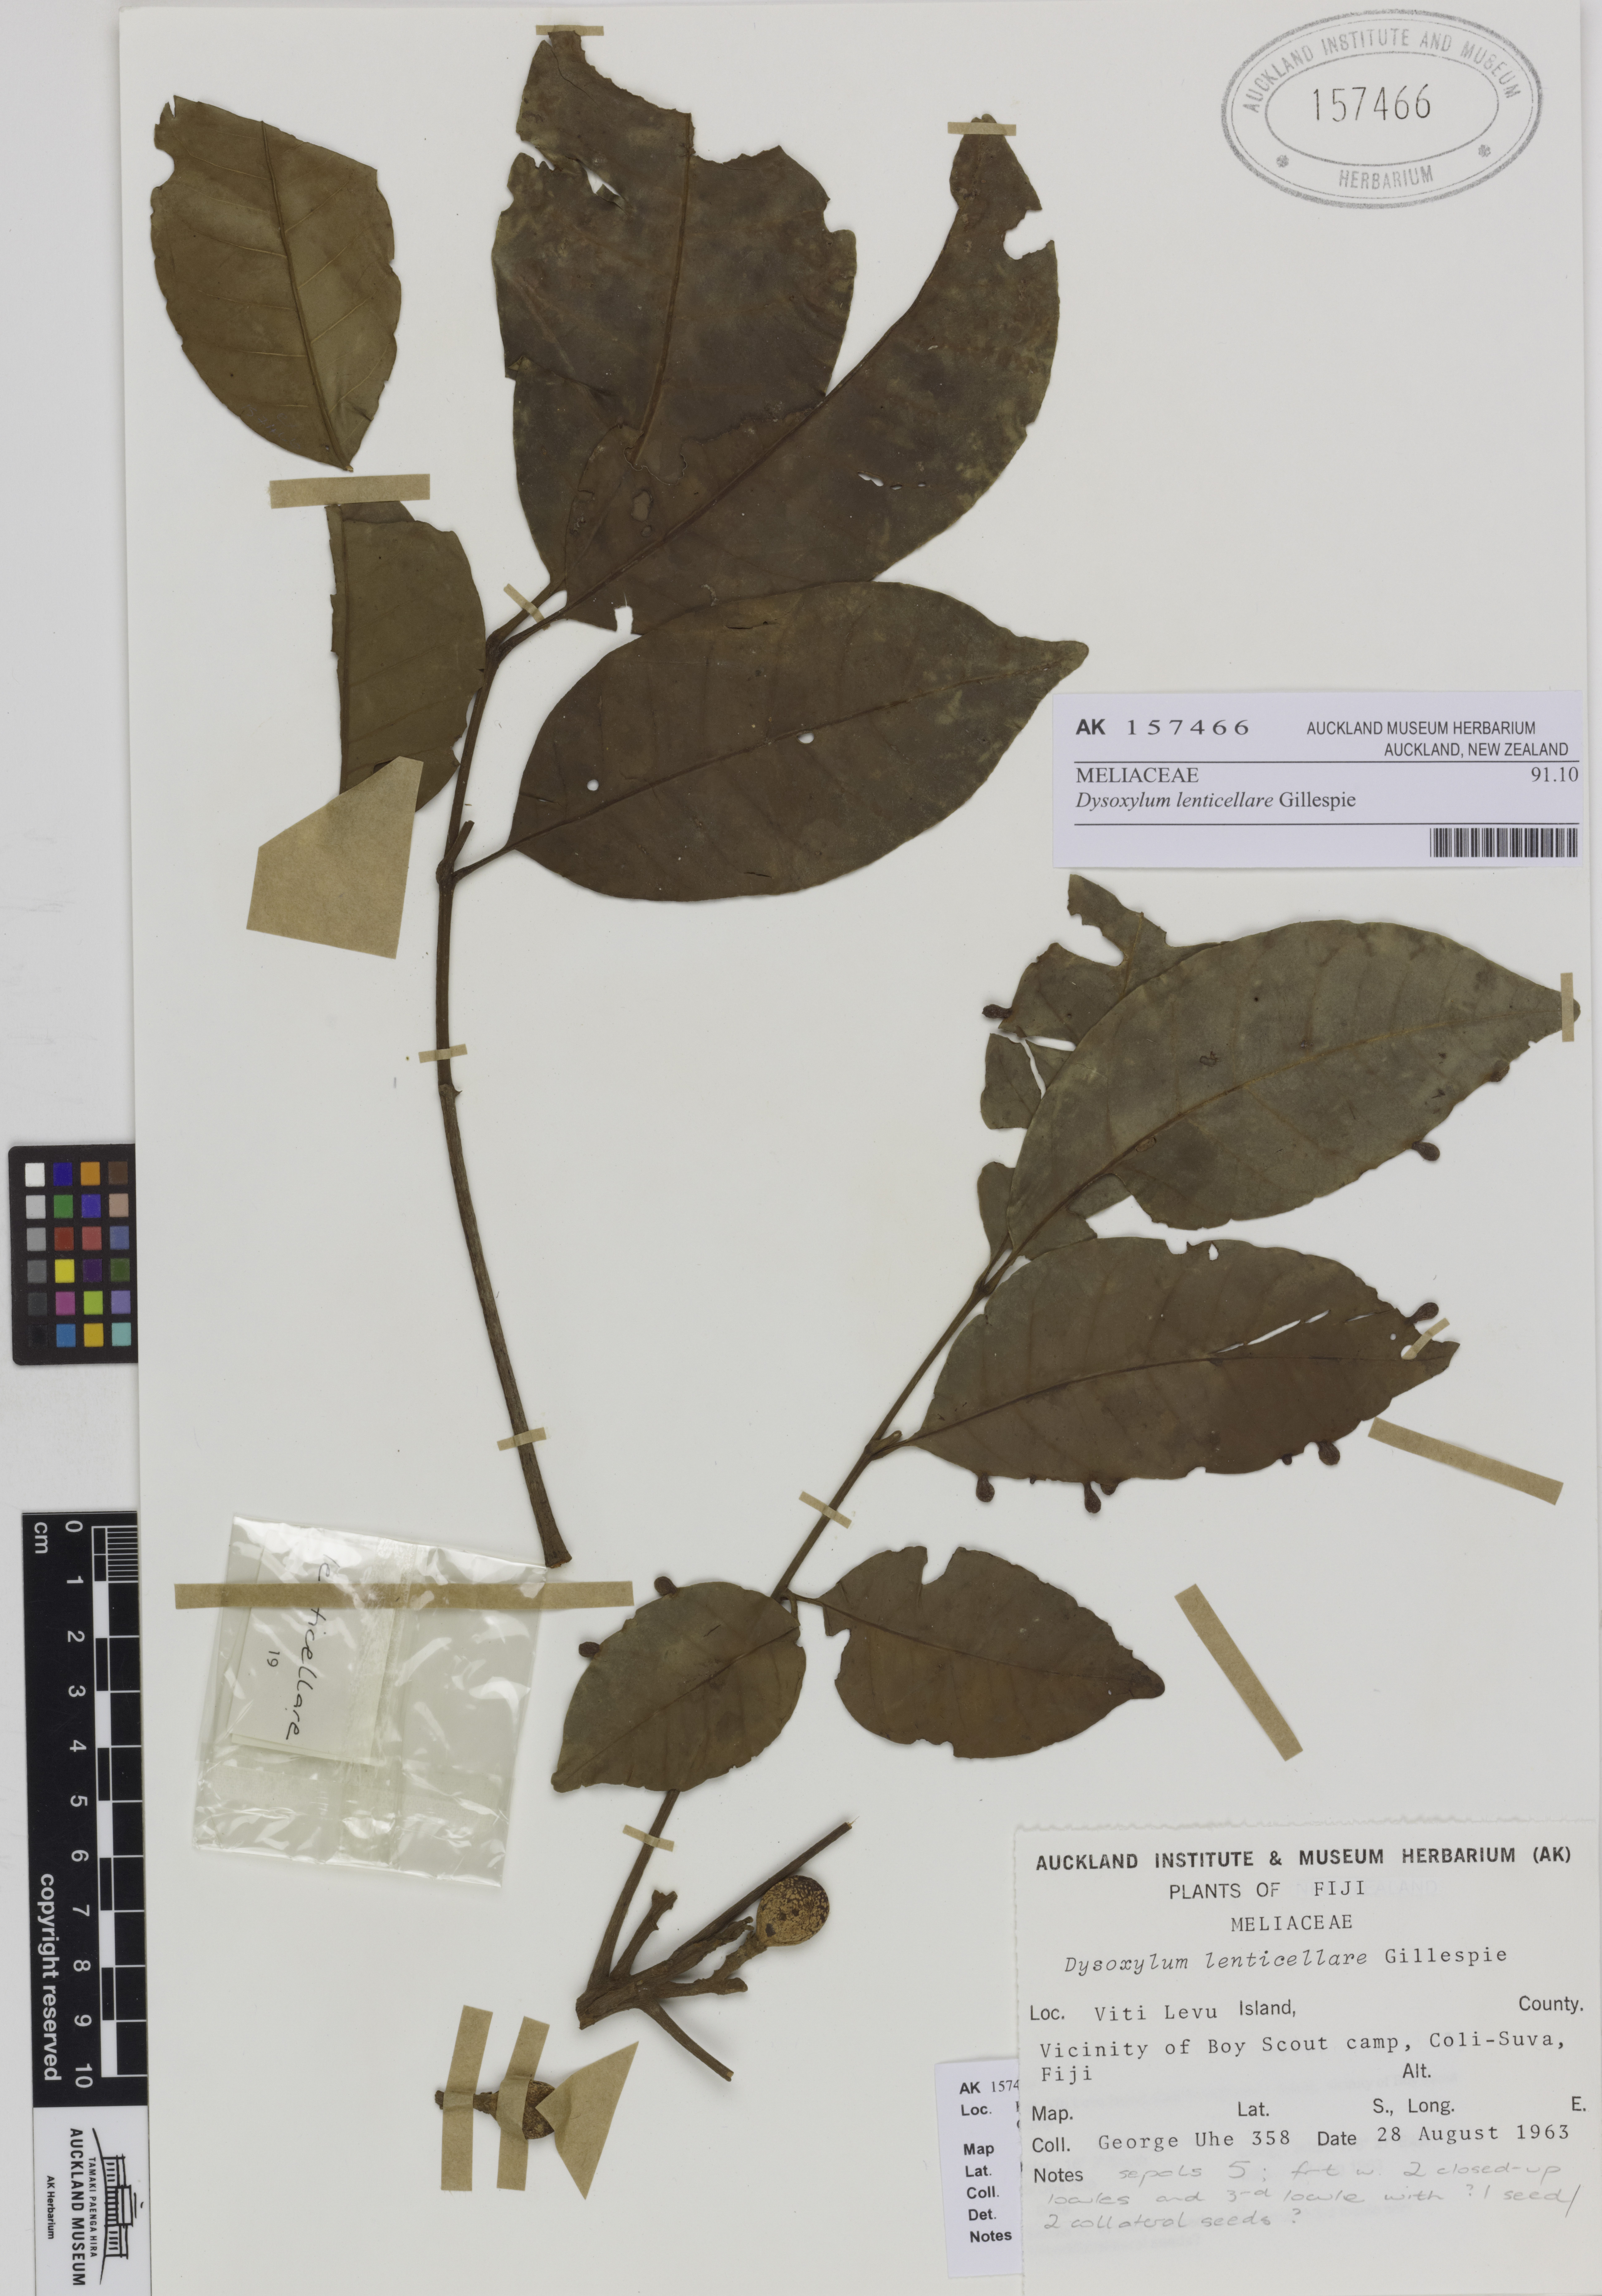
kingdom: Plantae
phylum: Tracheophyta
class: Magnoliopsida
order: Sapindales
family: Meliaceae
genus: Didymocheton
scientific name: Didymocheton lenticellaris
